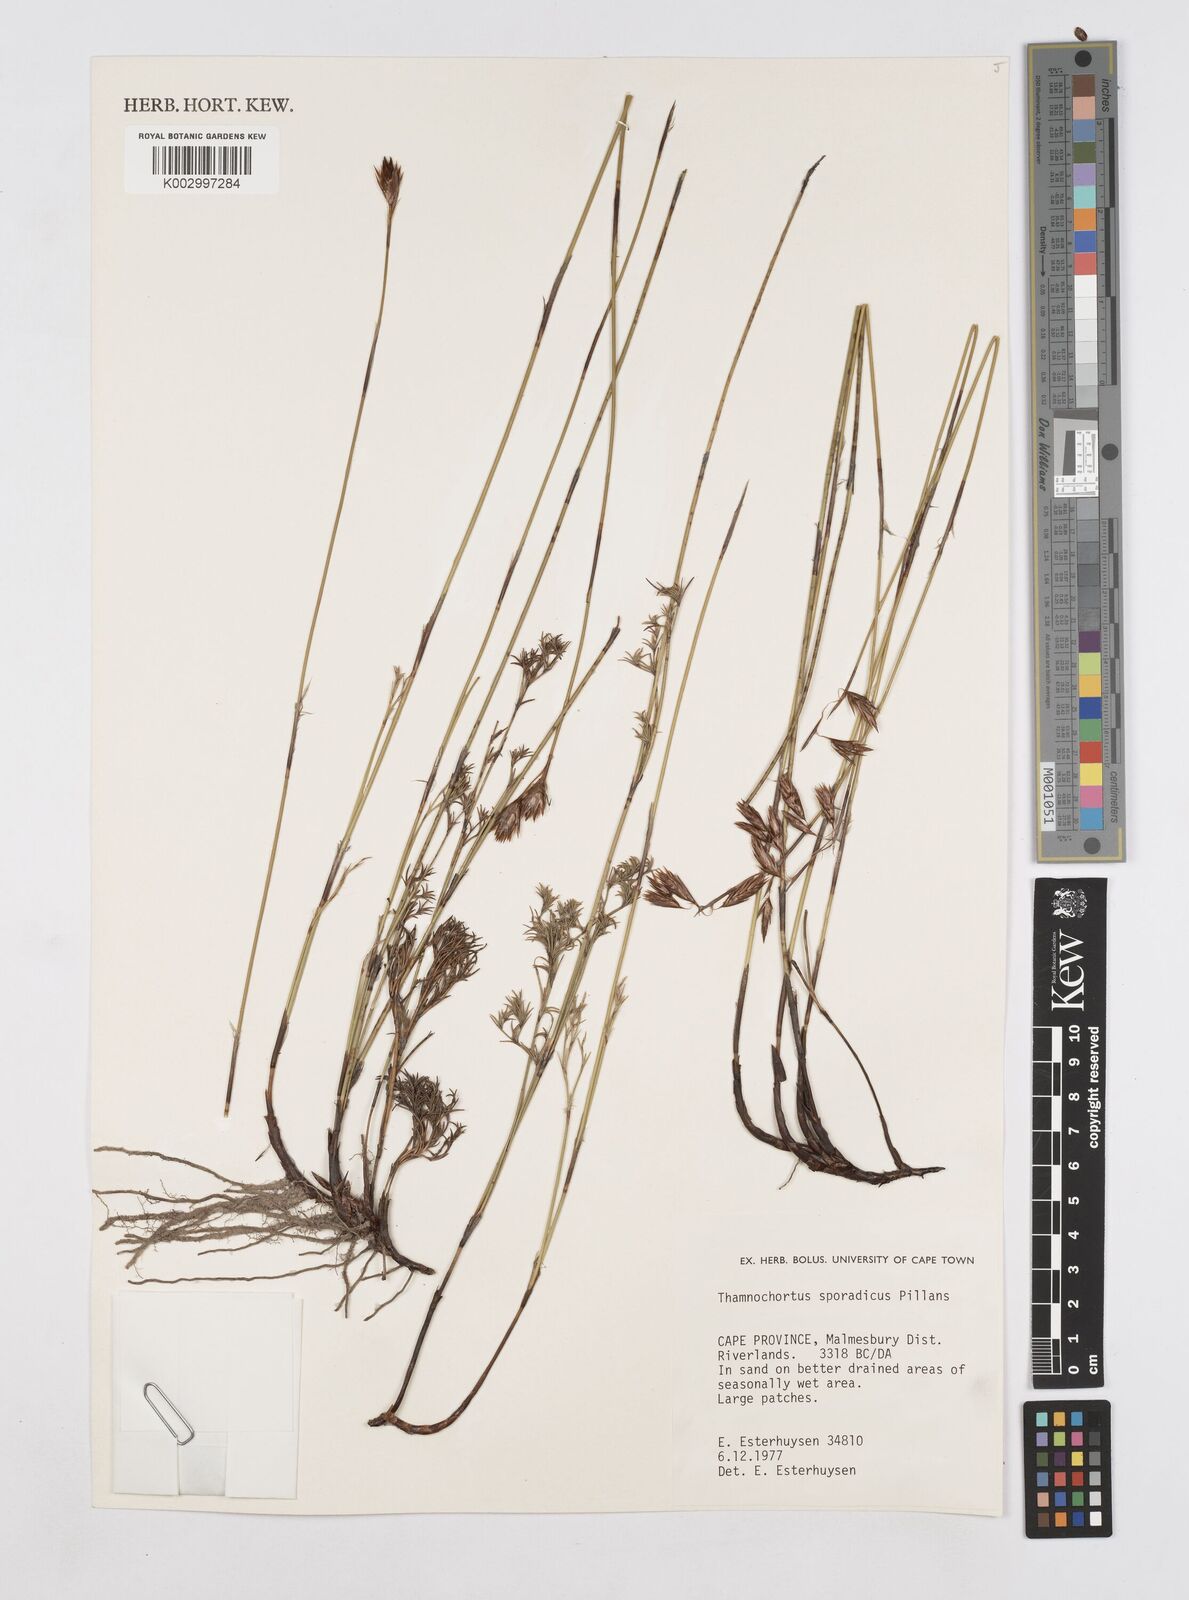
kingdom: Plantae
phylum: Tracheophyta
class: Liliopsida
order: Poales
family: Restionaceae
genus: Thamnochortus
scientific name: Thamnochortus sporadicus
